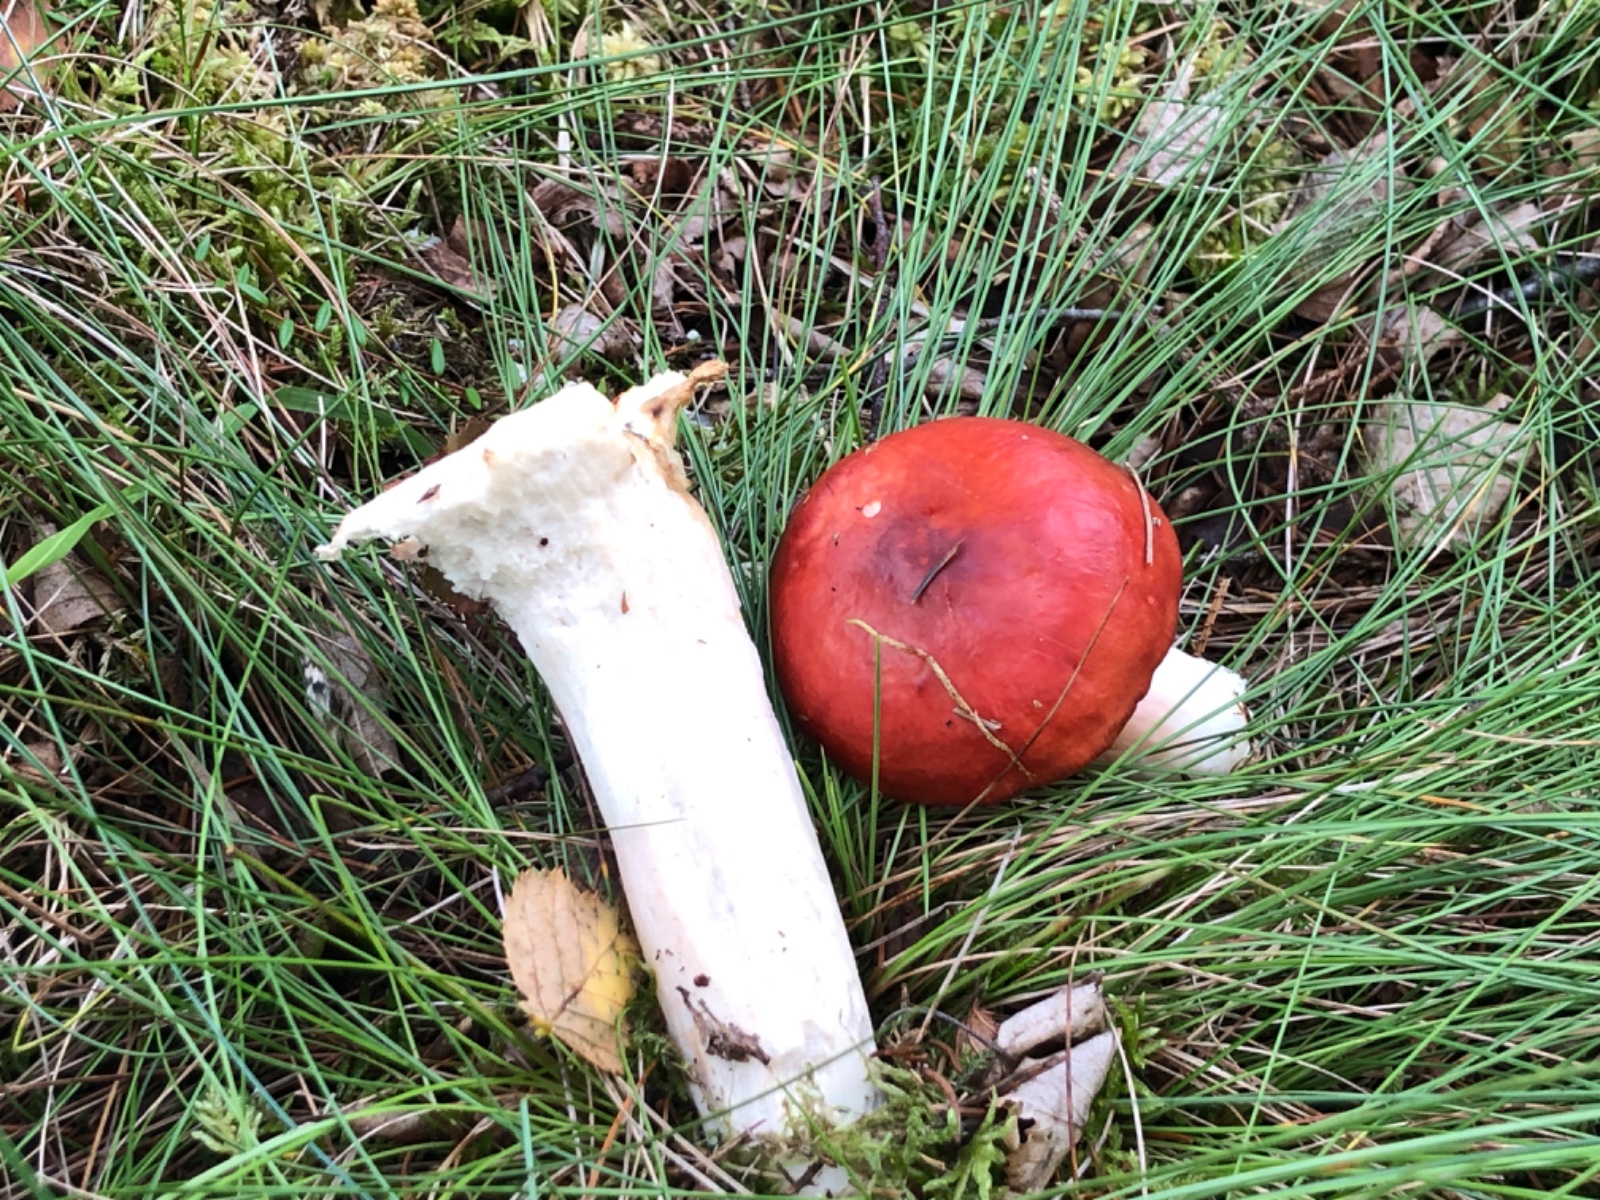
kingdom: Fungi
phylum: Basidiomycota
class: Agaricomycetes
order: Russulales
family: Russulaceae
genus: Russula
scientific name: Russula paludosa
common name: prægtig skørhat
